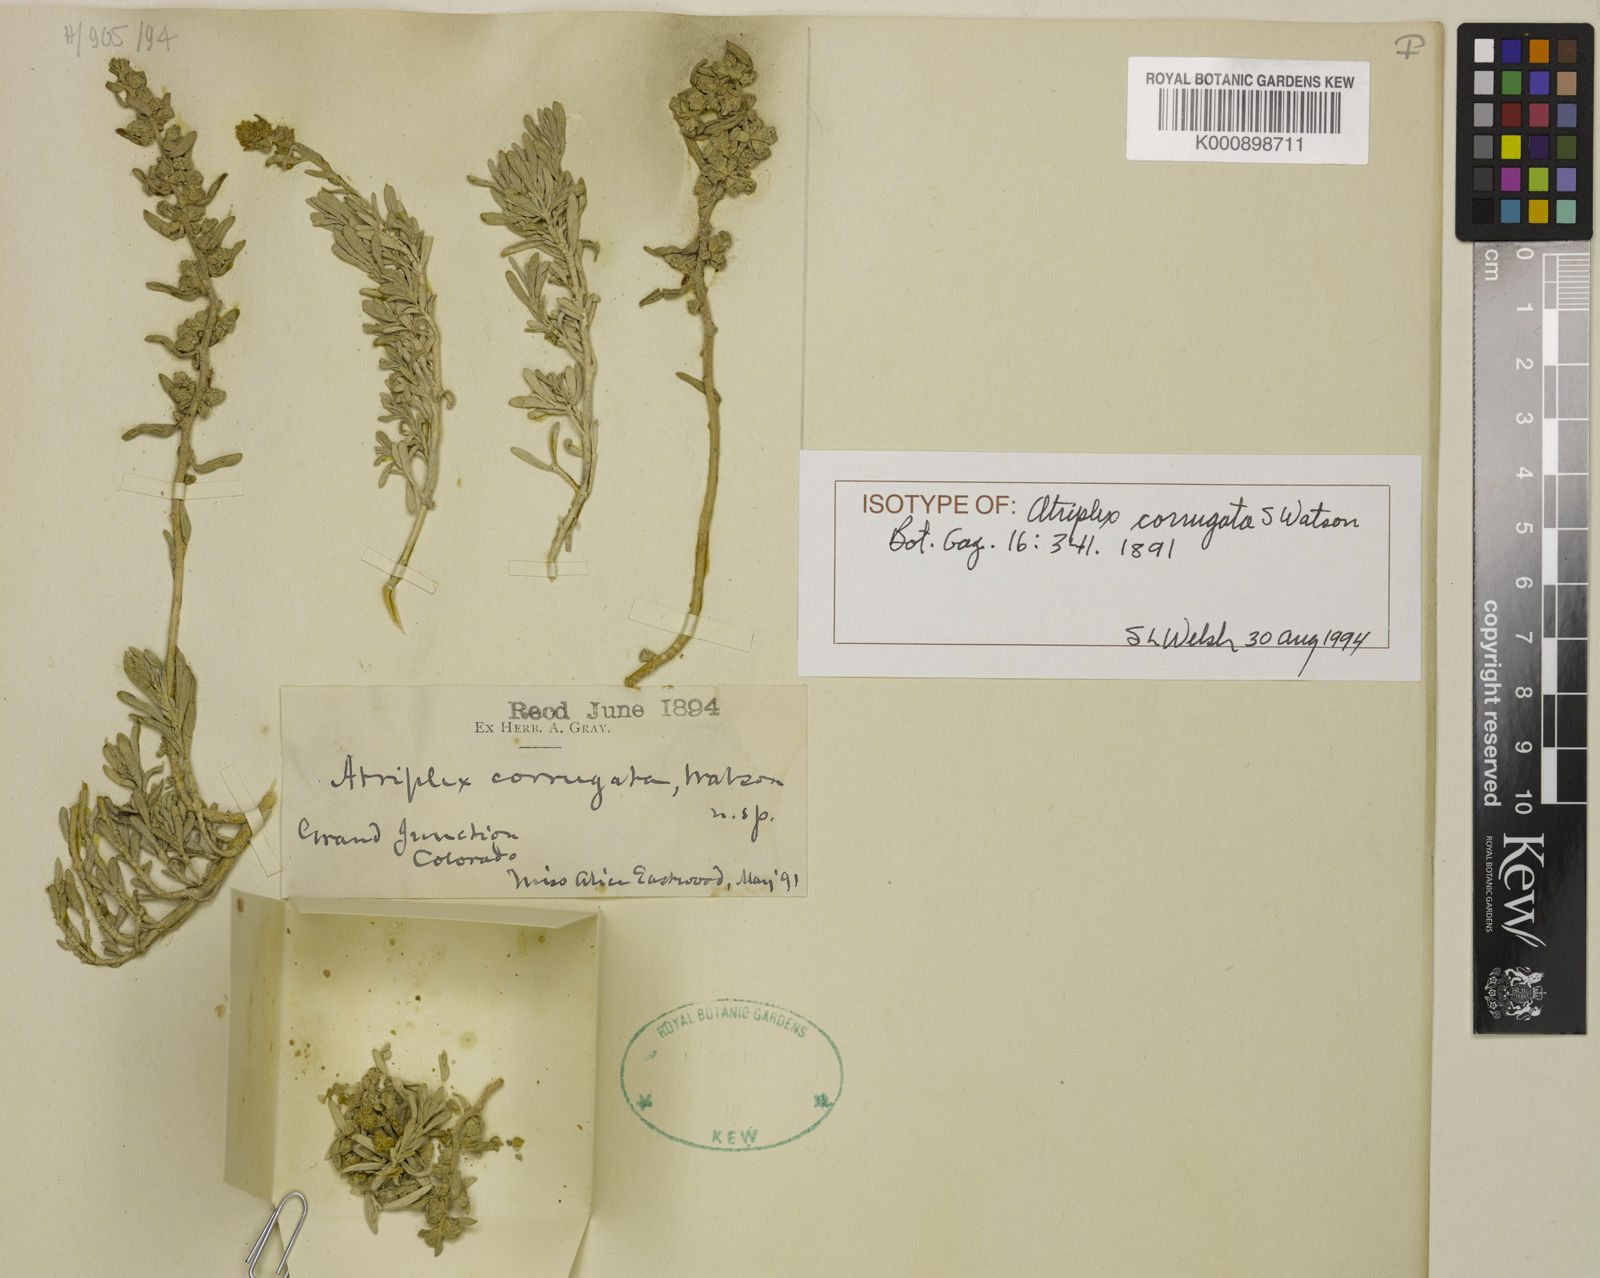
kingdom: Plantae
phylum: Tracheophyta
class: Magnoliopsida
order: Caryophyllales
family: Amaranthaceae
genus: Atriplex
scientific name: Atriplex corrugata
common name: Mat atriplex
